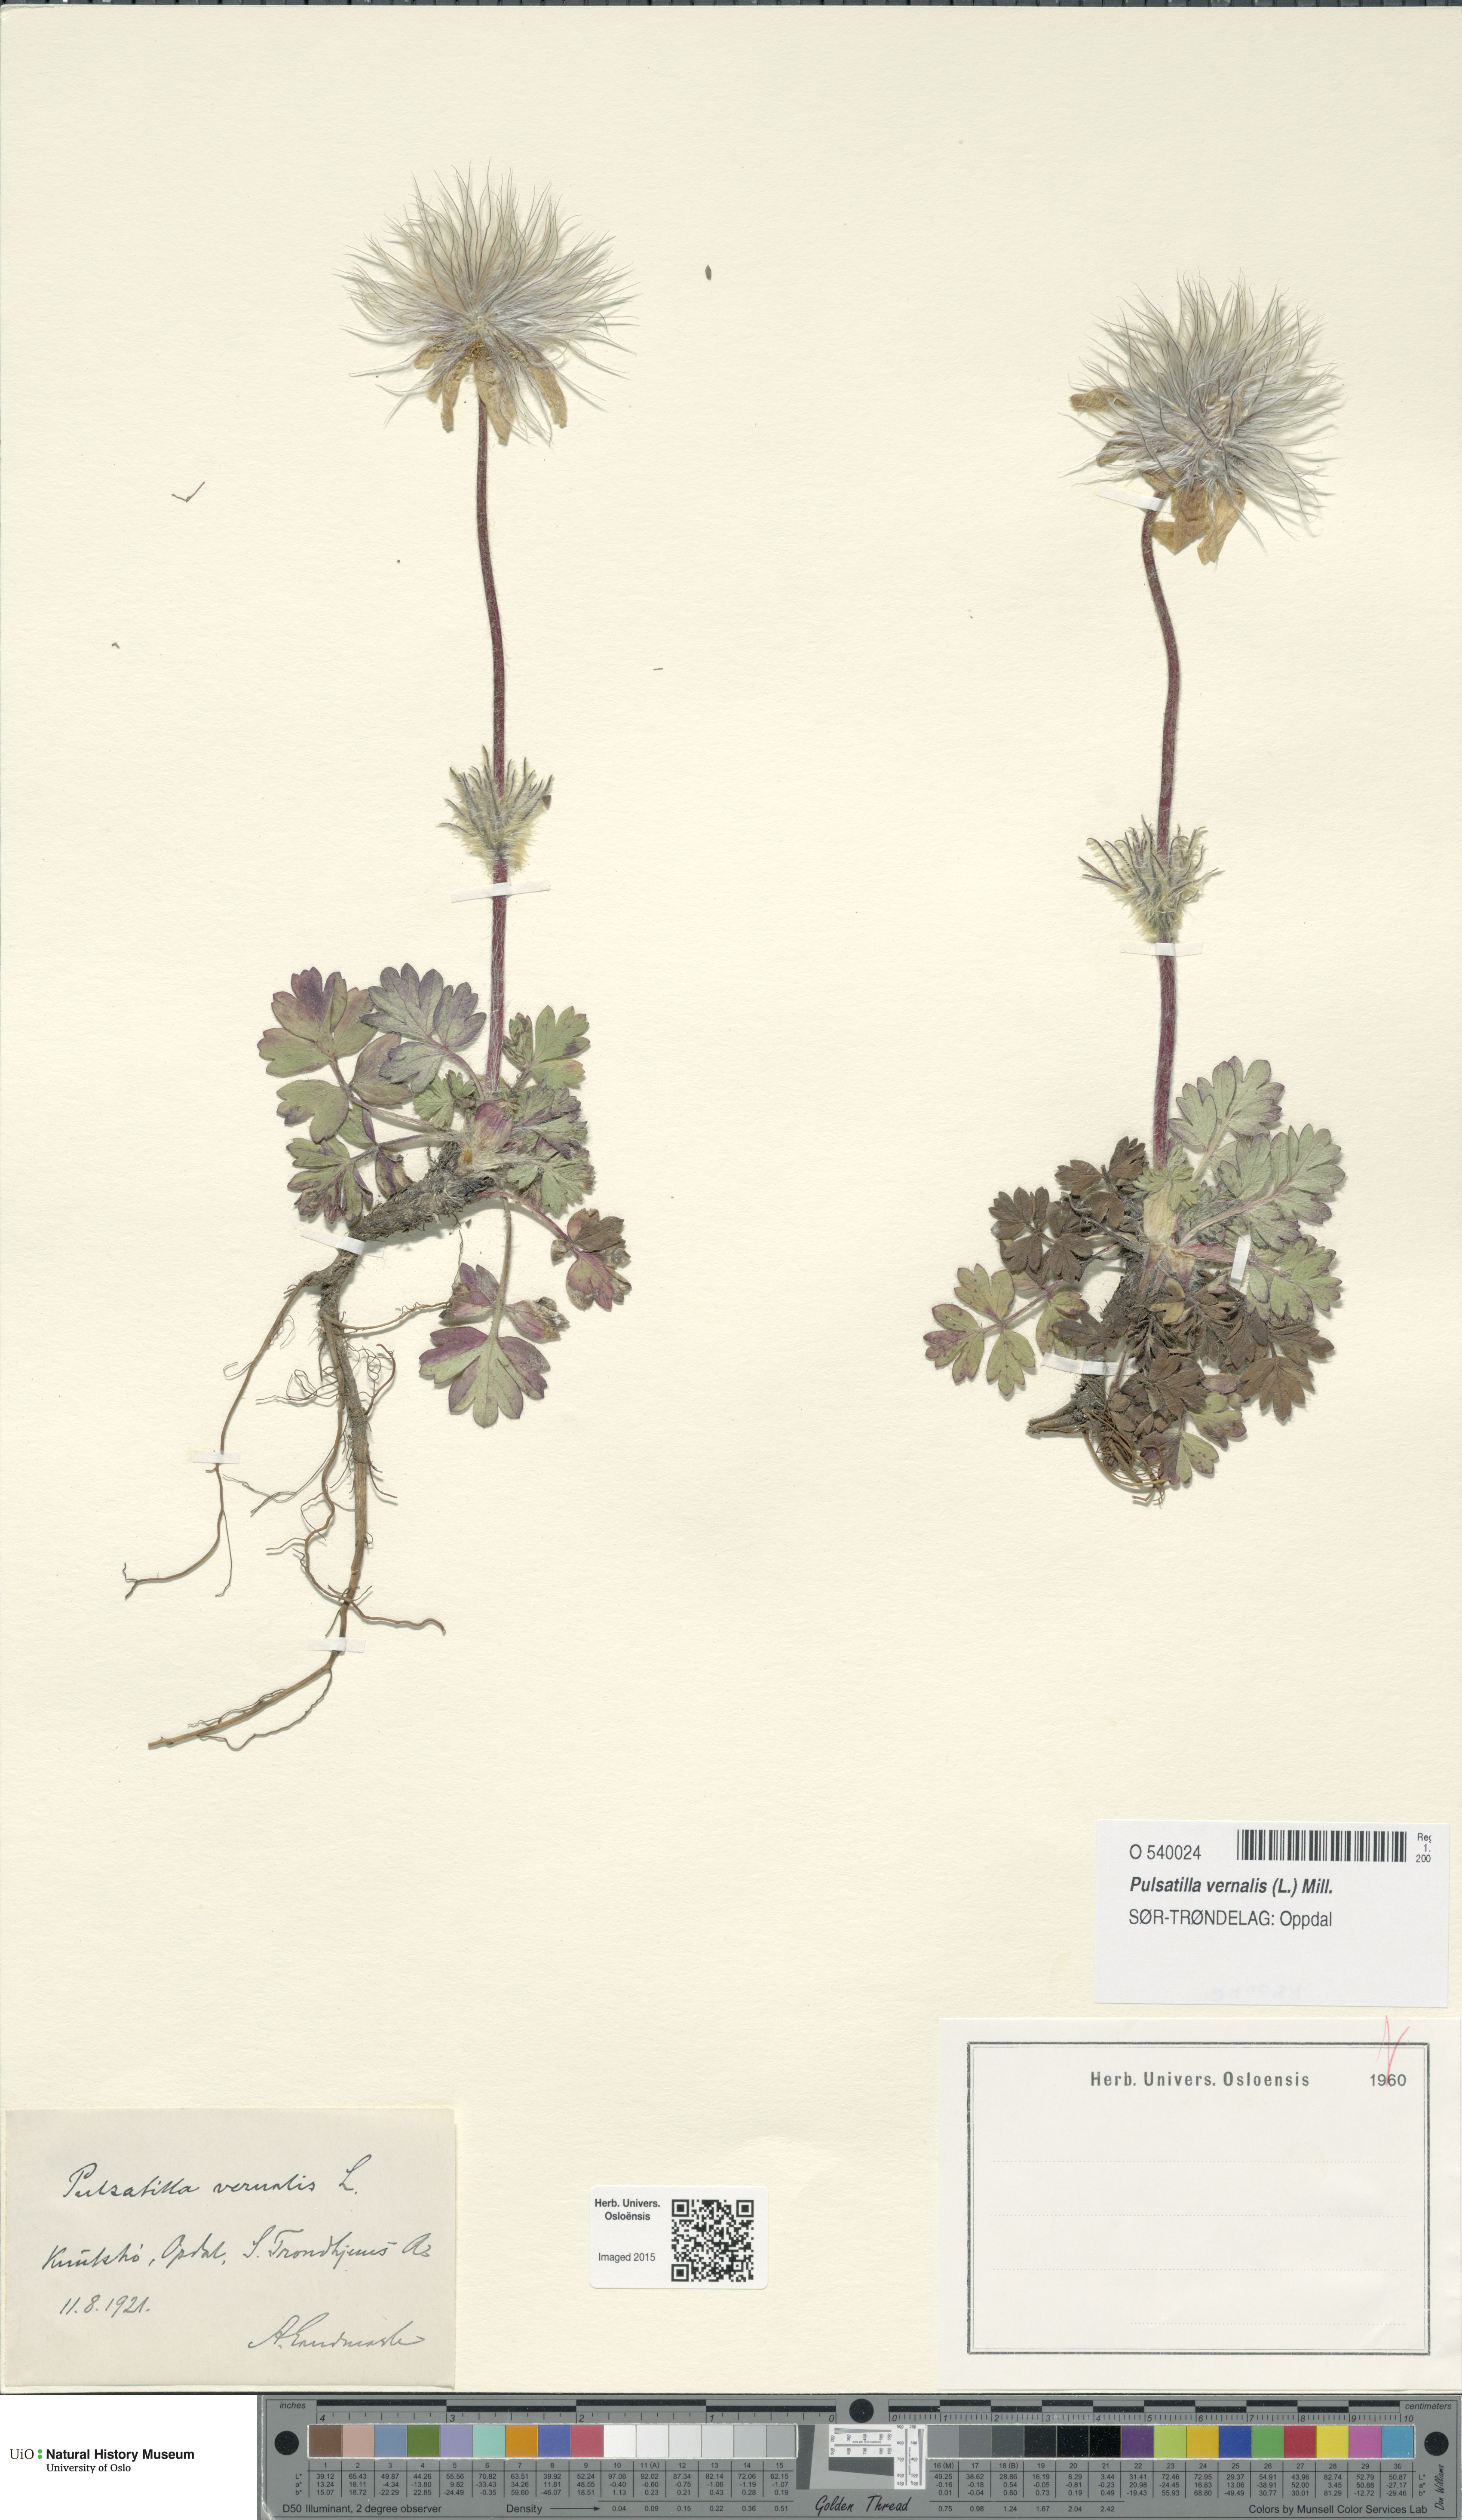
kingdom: Plantae
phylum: Tracheophyta
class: Magnoliopsida
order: Ranunculales
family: Ranunculaceae
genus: Pulsatilla
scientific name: Pulsatilla vernalis
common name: Spring pasque flower
